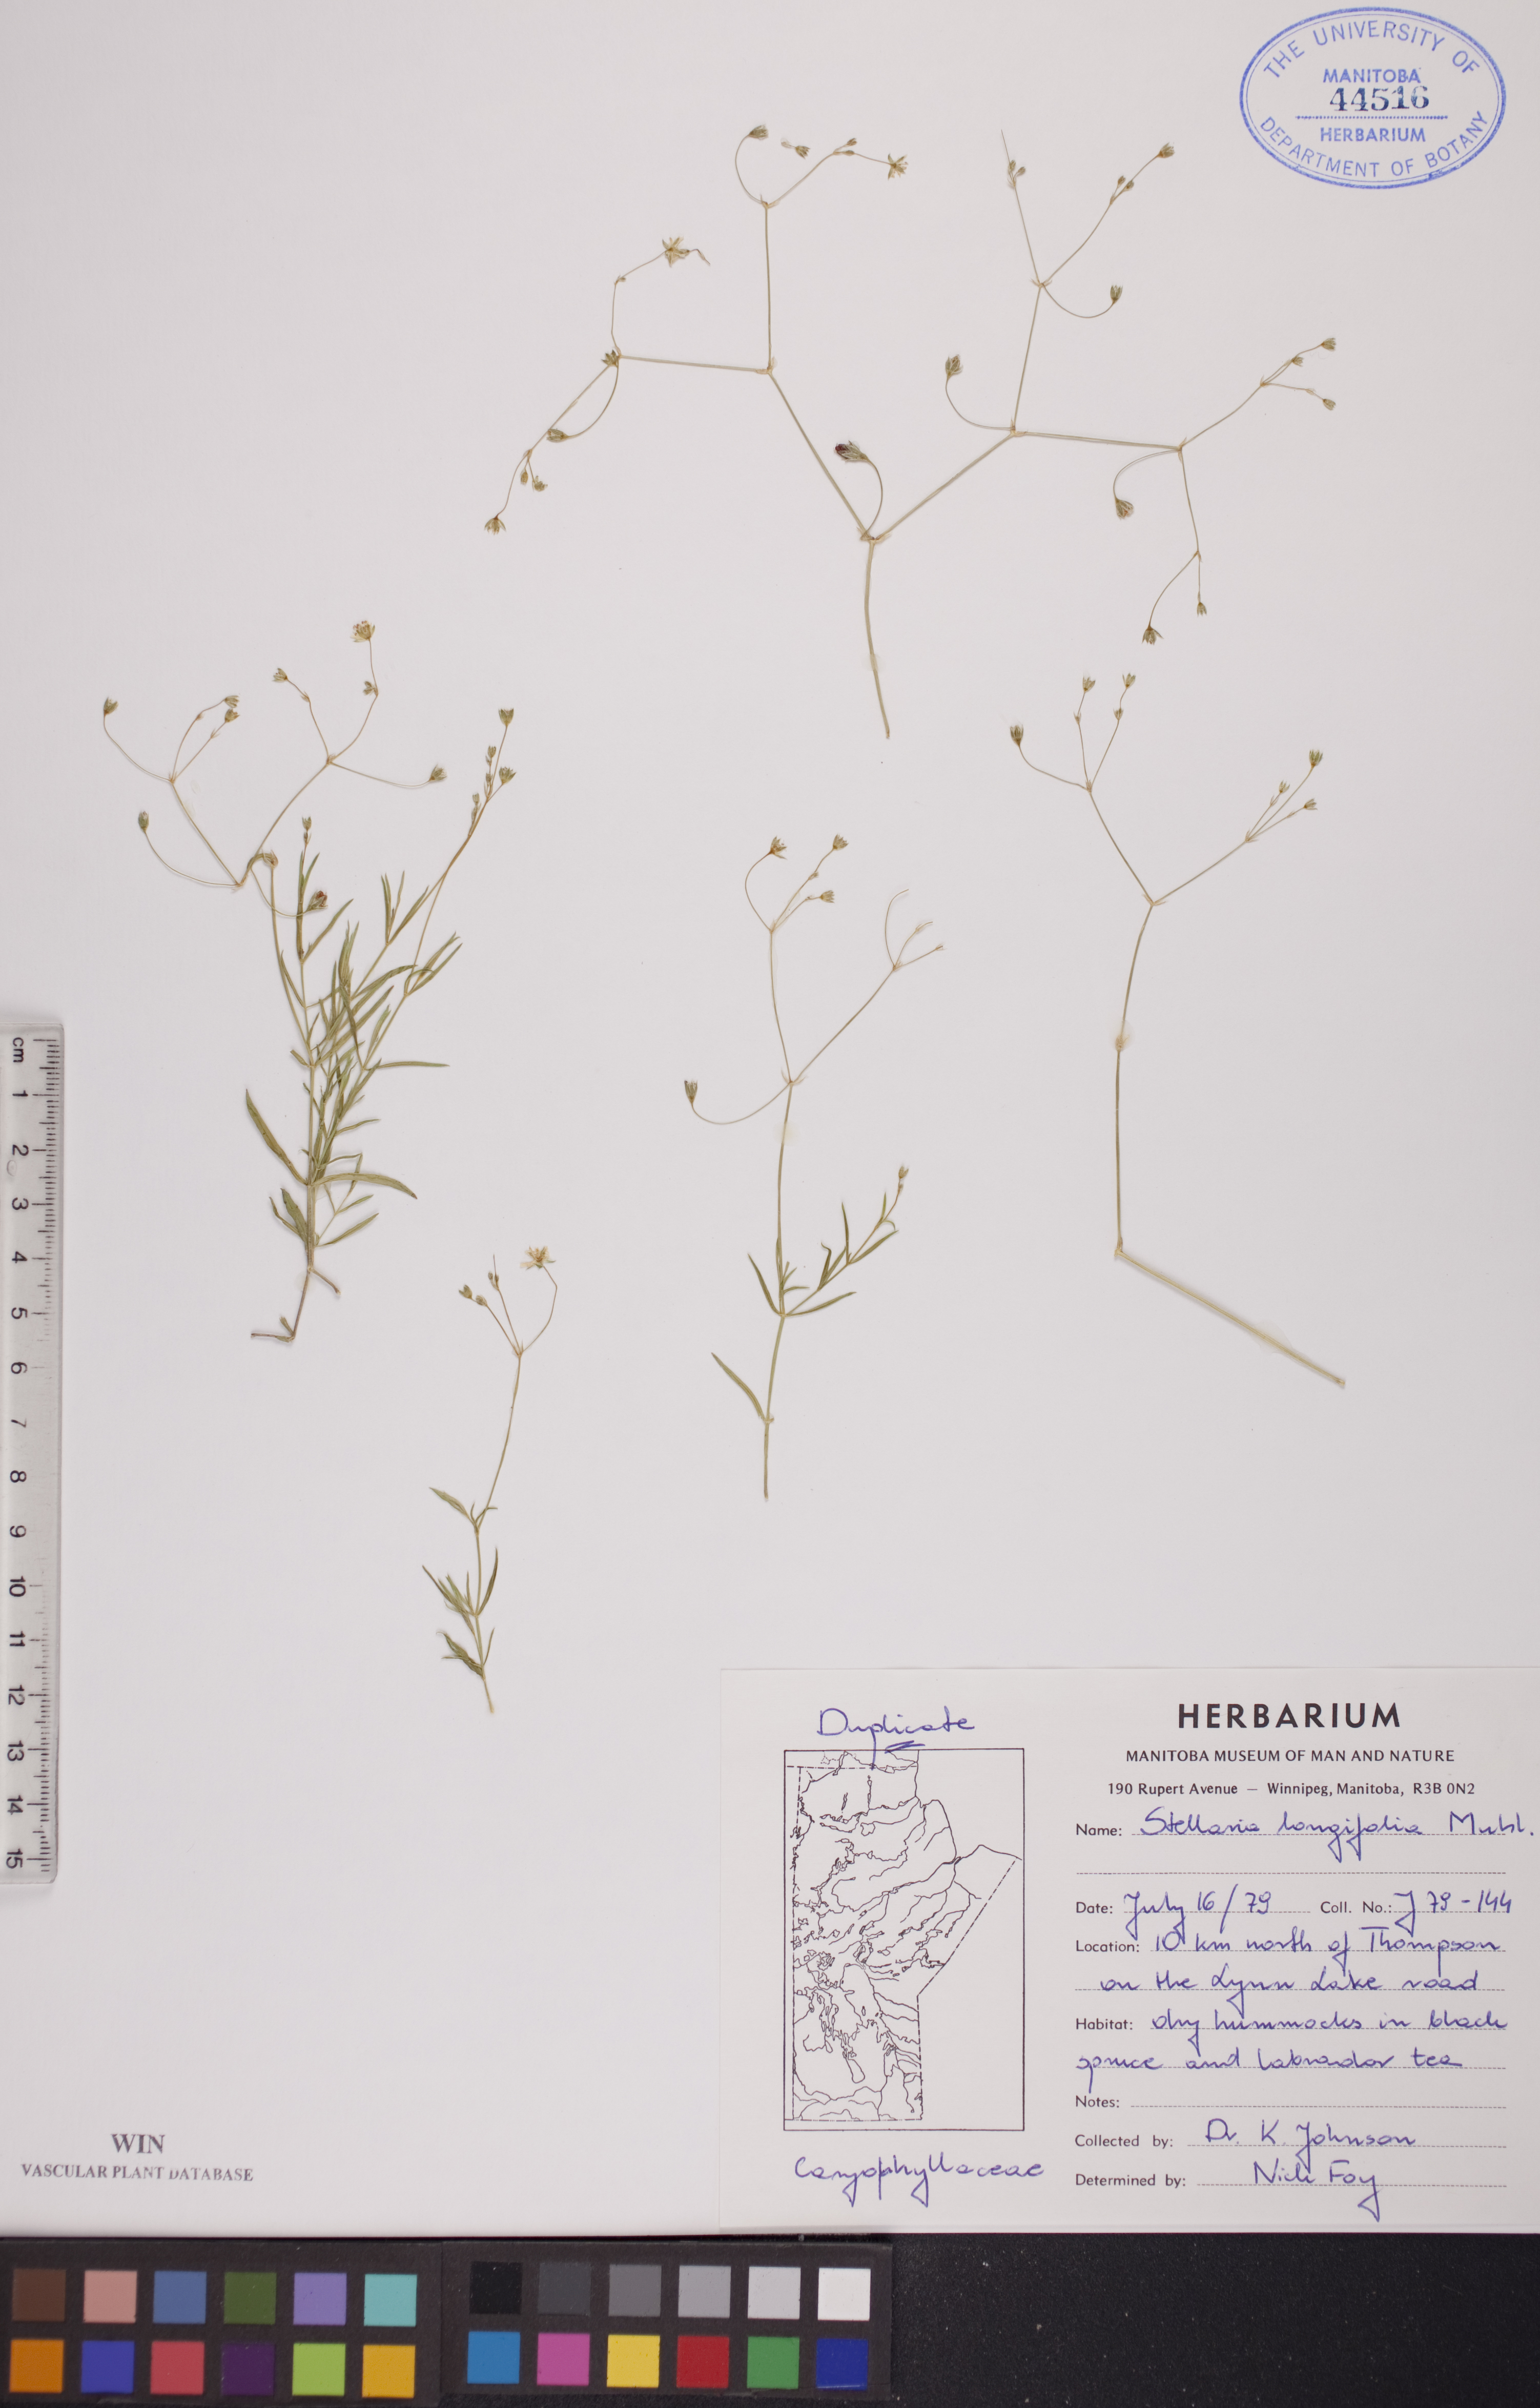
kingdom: Plantae
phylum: Tracheophyta
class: Magnoliopsida
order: Caryophyllales
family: Caryophyllaceae
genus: Stellaria
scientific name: Stellaria longifolia
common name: Long-leaved chickweed
